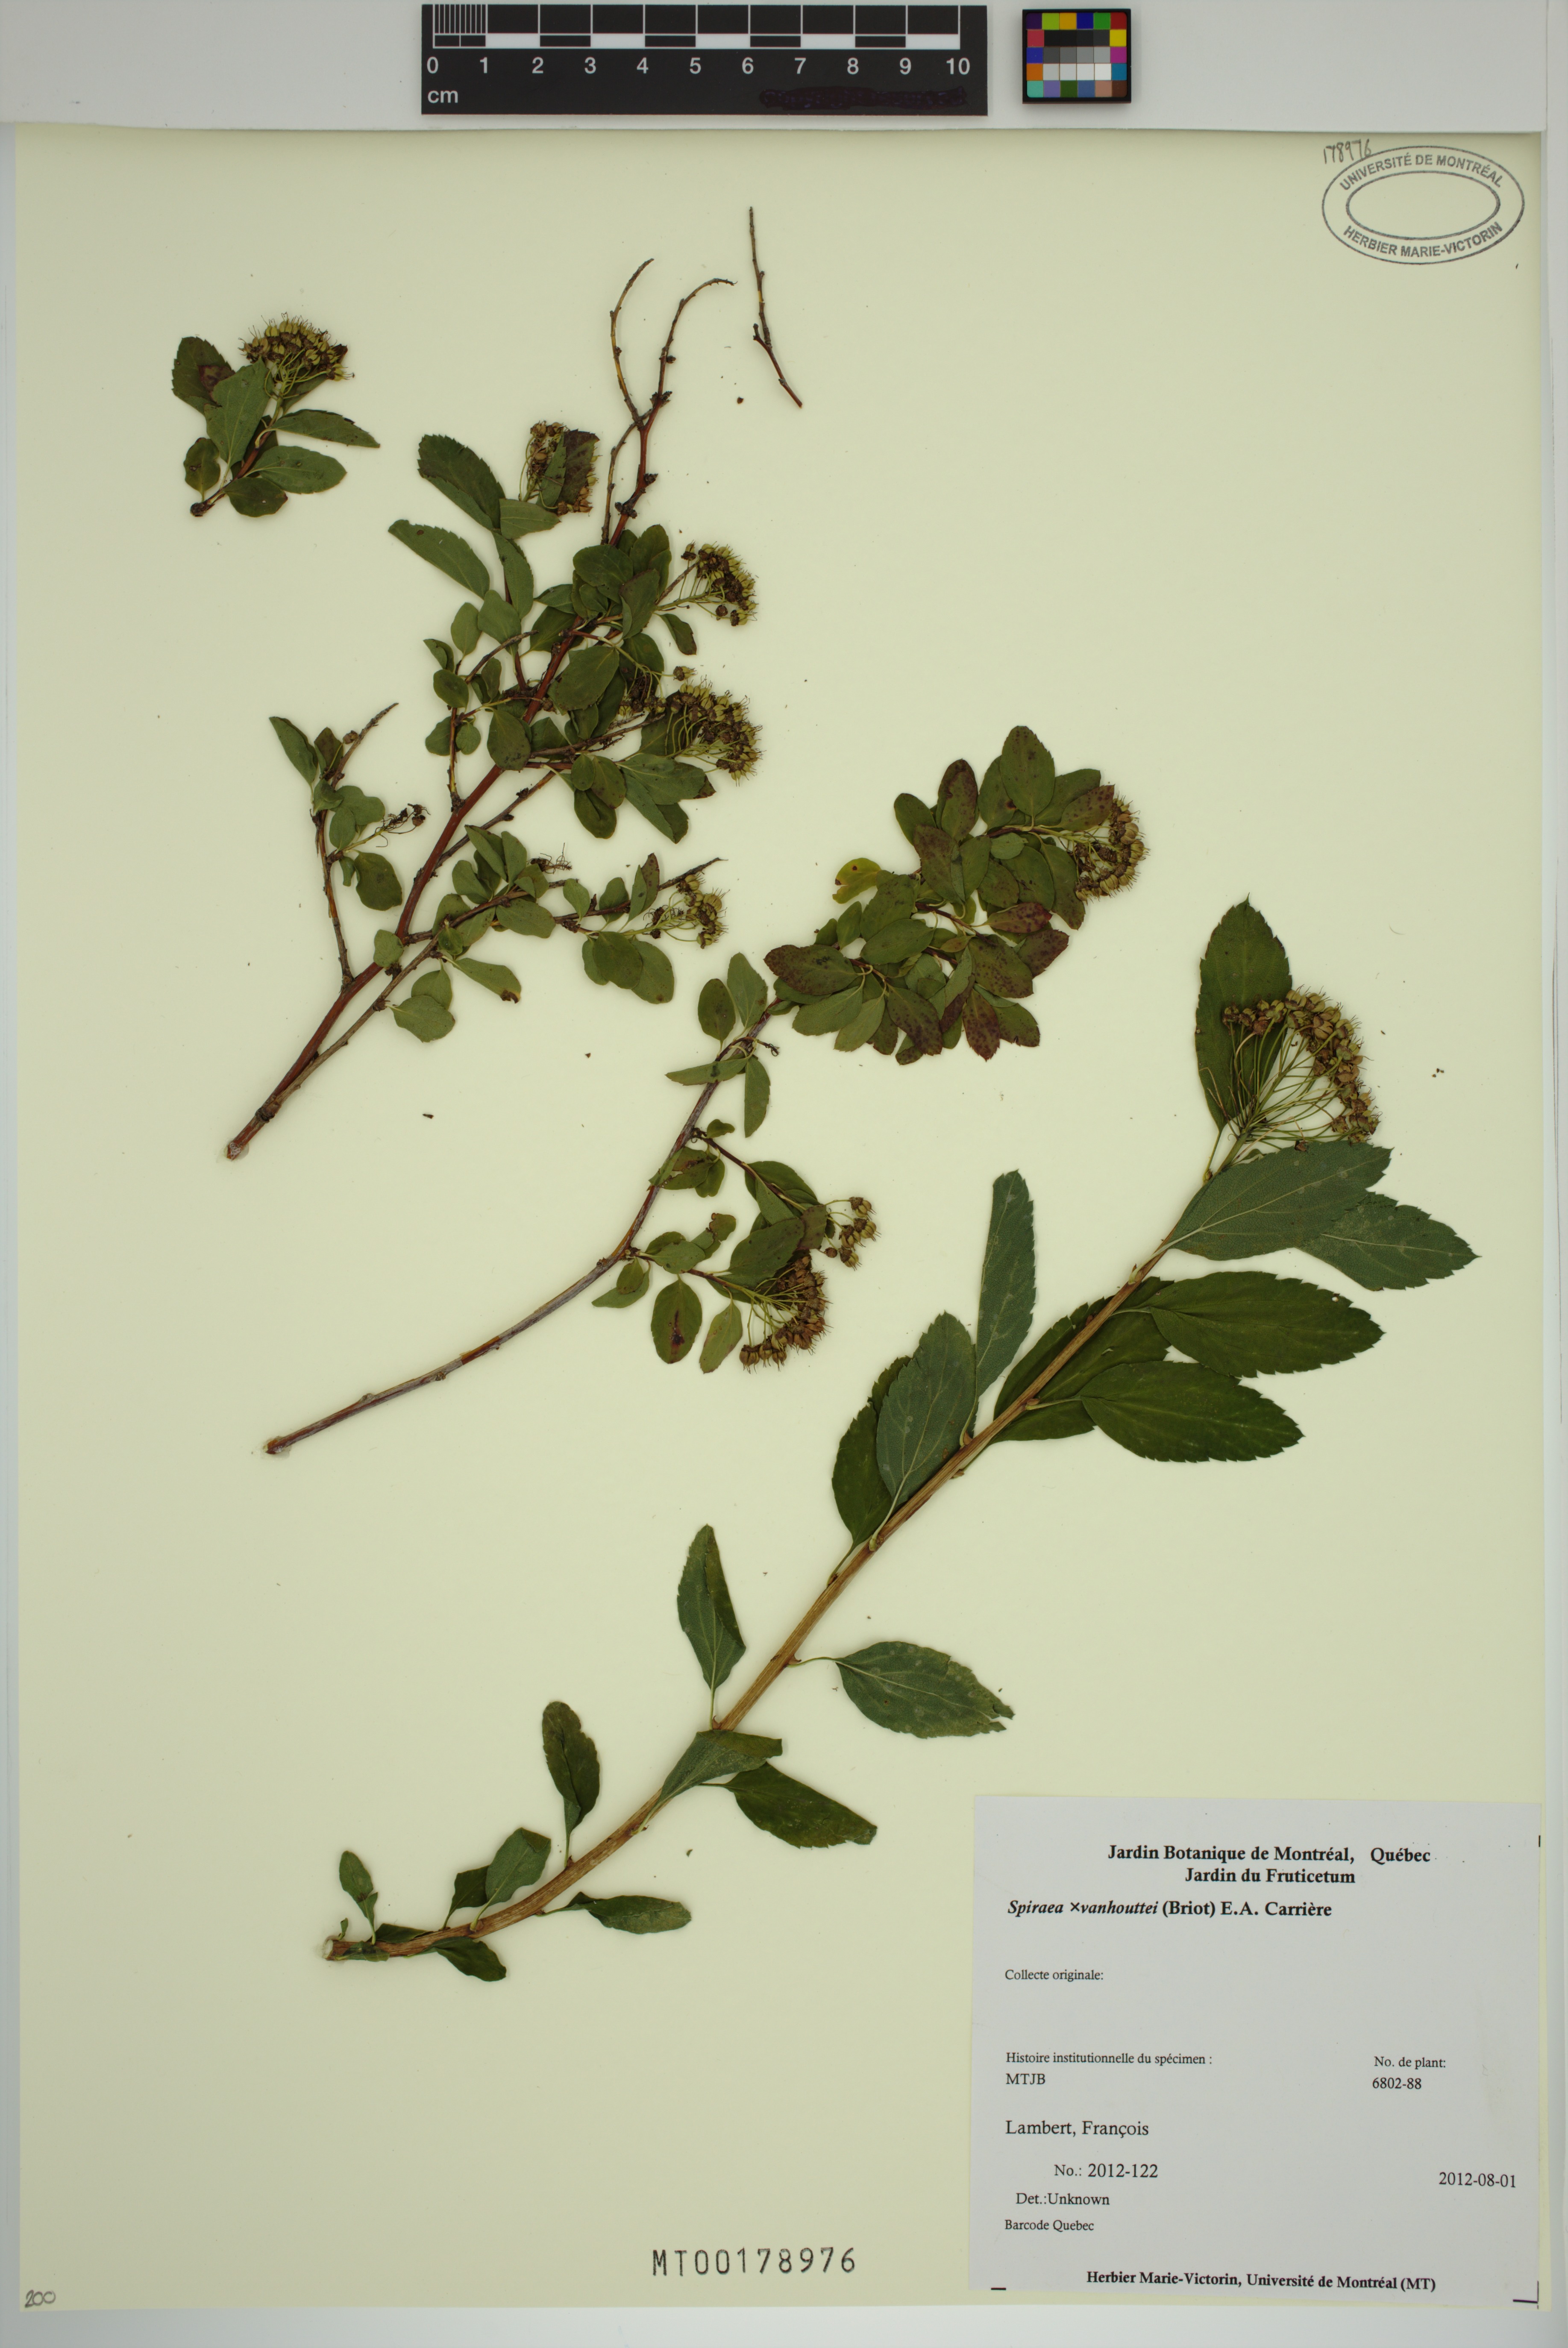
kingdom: Plantae
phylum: Tracheophyta
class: Magnoliopsida
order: Rosales
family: Rosaceae
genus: Spiraea
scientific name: Spiraea vanhouttei
